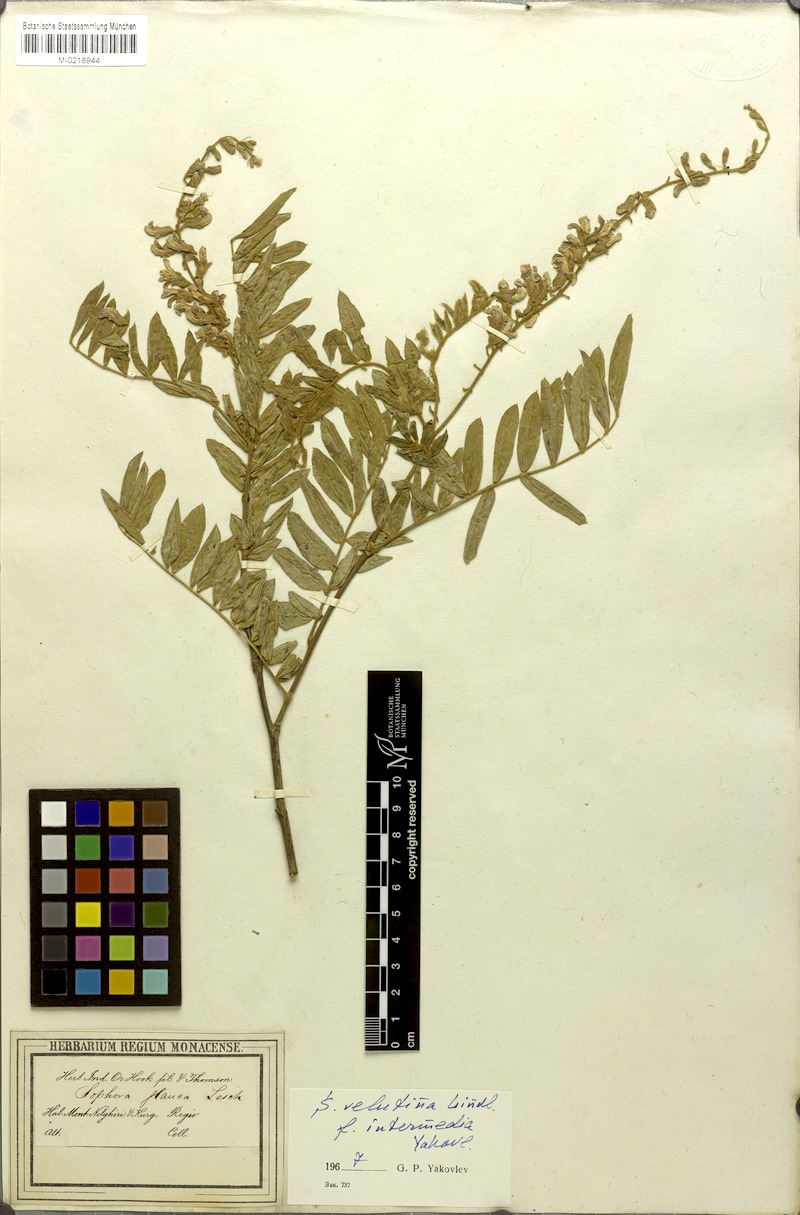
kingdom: Plantae
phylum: Tracheophyta
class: Magnoliopsida
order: Fabales
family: Fabaceae
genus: Sophora
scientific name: Sophora velutina
